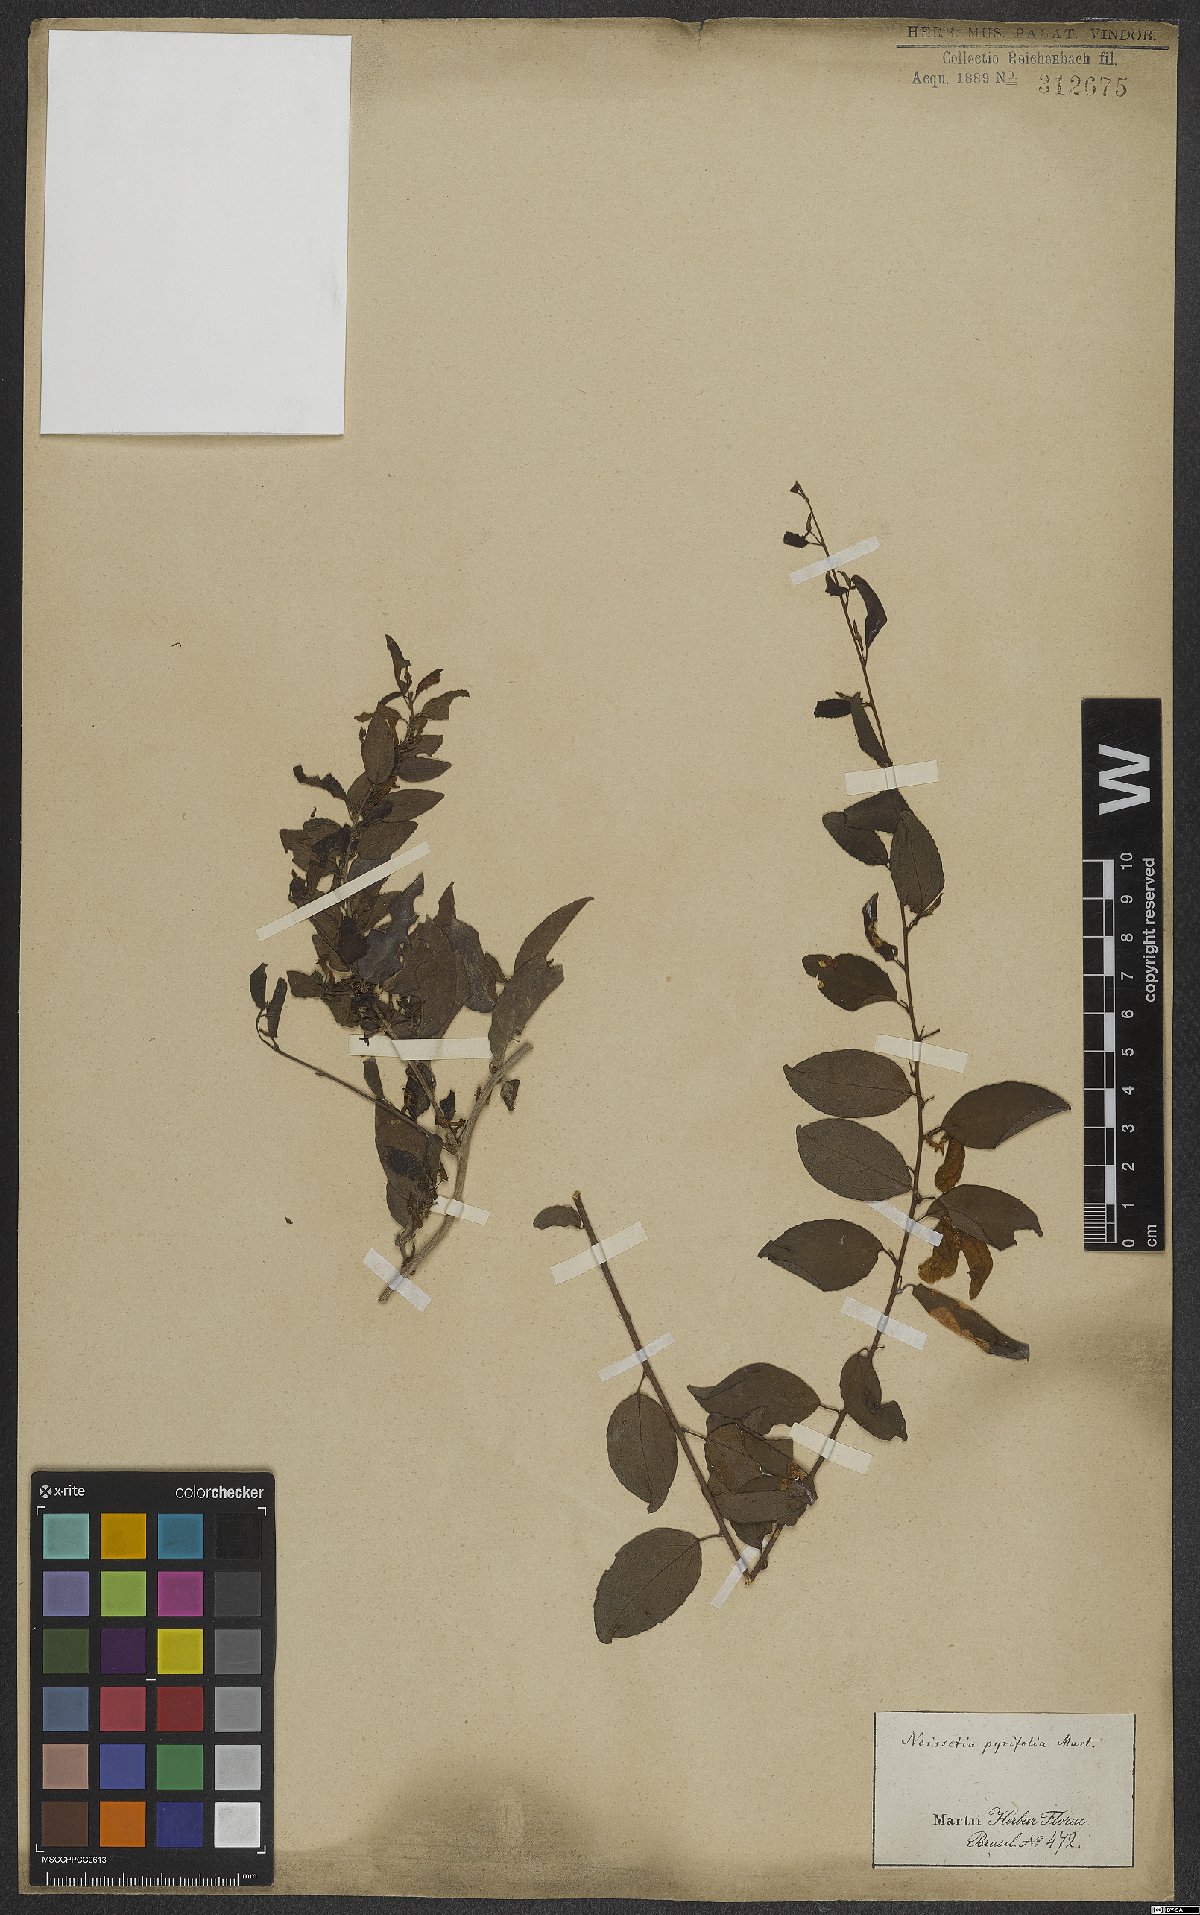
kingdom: Plantae
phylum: Tracheophyta
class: Magnoliopsida
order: Malpighiales
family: Violaceae
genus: Anchietea
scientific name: Anchietea pyrifolia
